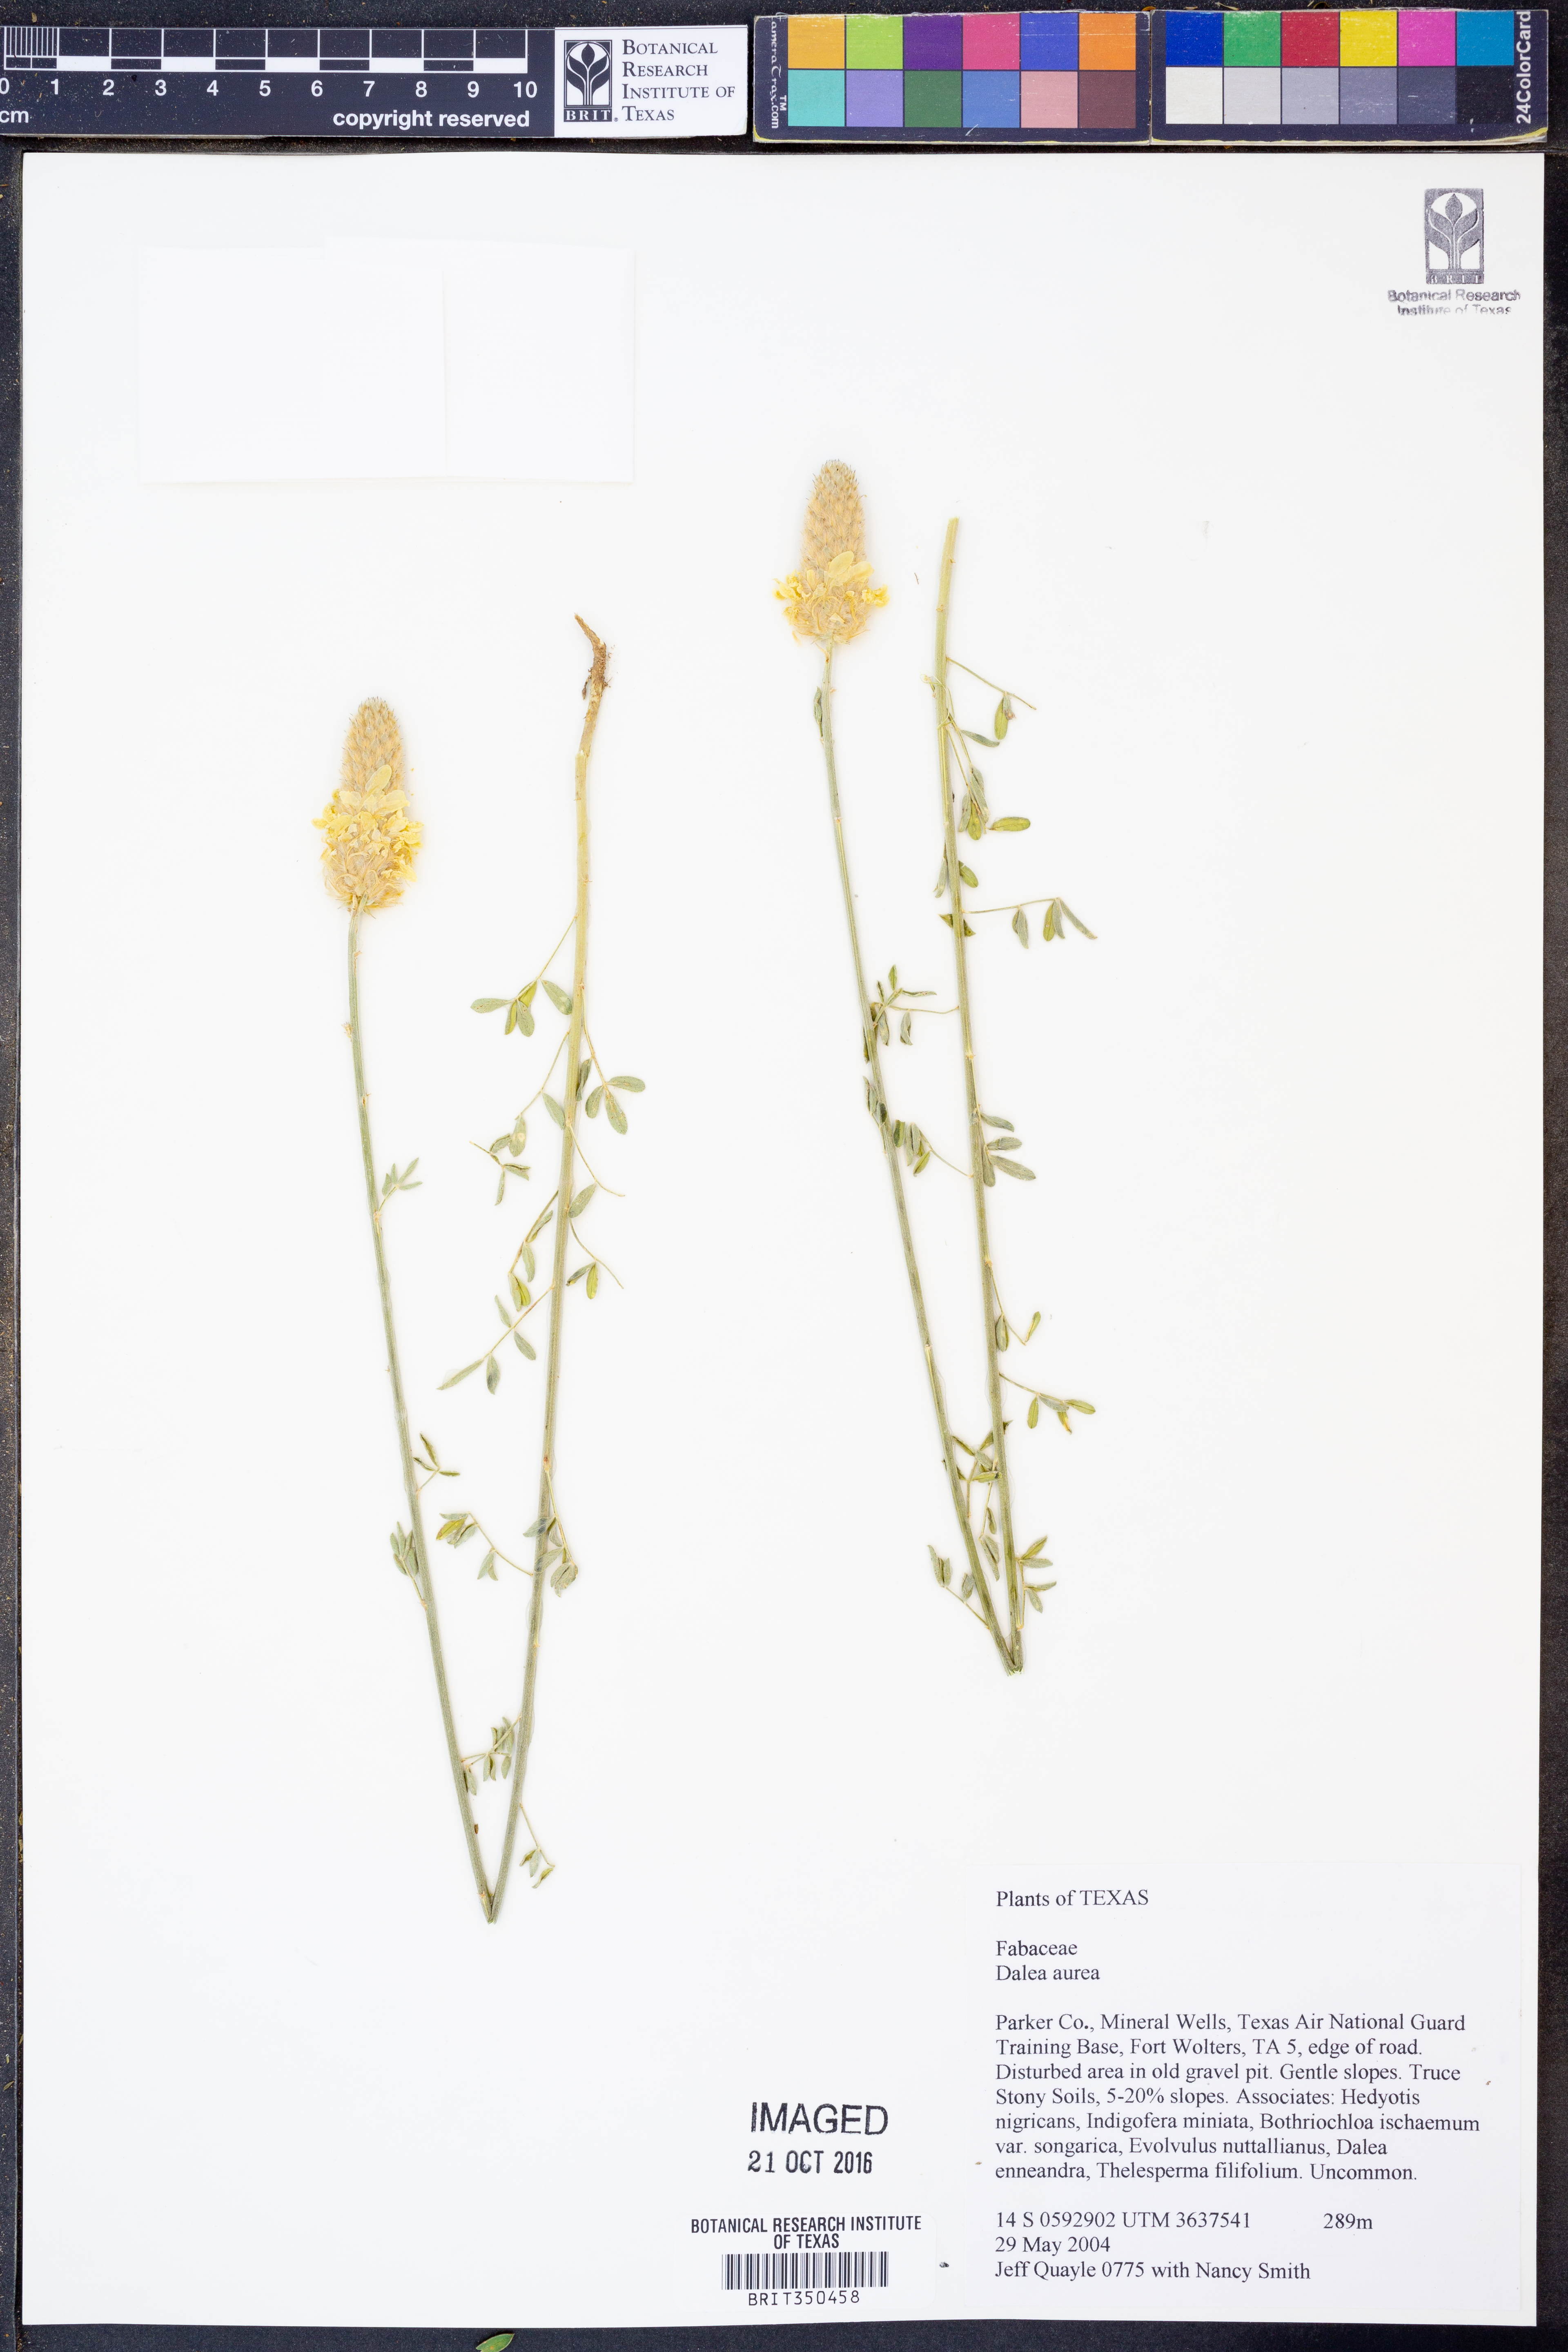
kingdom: Plantae
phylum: Tracheophyta
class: Magnoliopsida
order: Fabales
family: Fabaceae
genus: Dalea
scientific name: Dalea aurea
